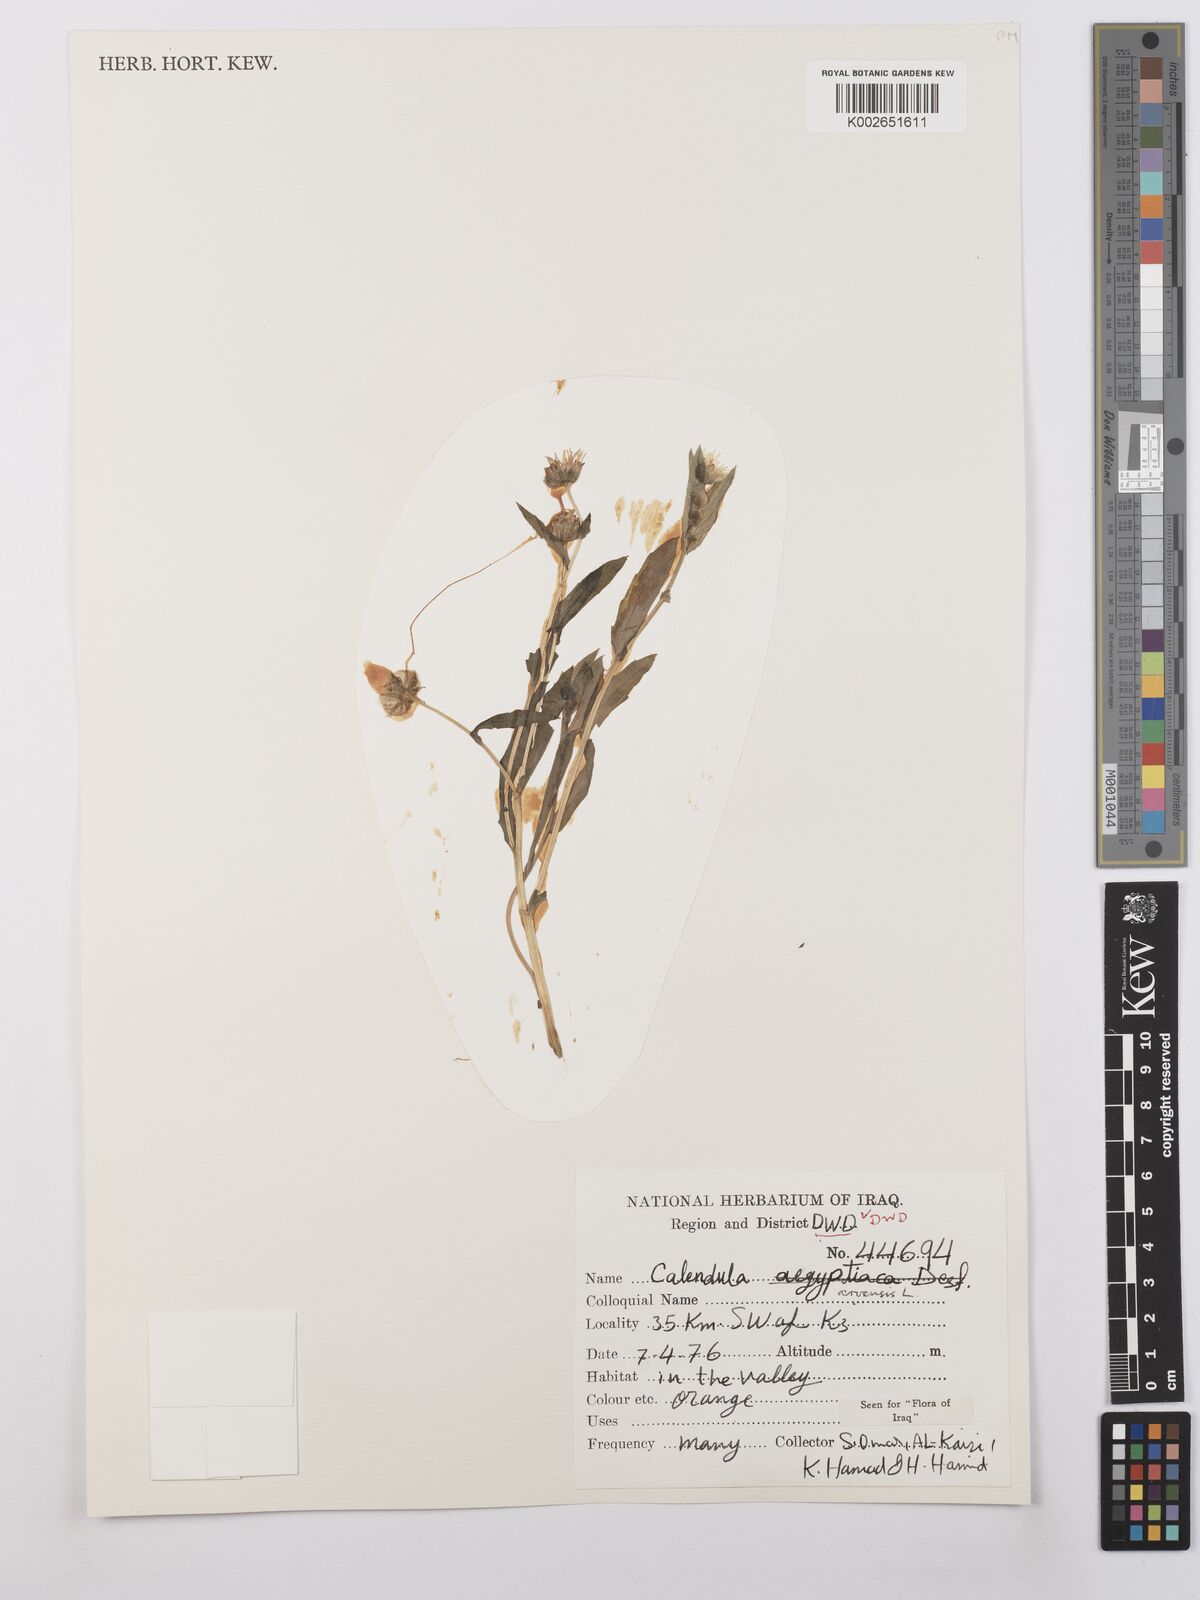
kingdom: Plantae
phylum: Tracheophyta
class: Magnoliopsida
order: Asterales
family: Asteraceae
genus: Calendula
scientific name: Calendula arvensis
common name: Field marigold
